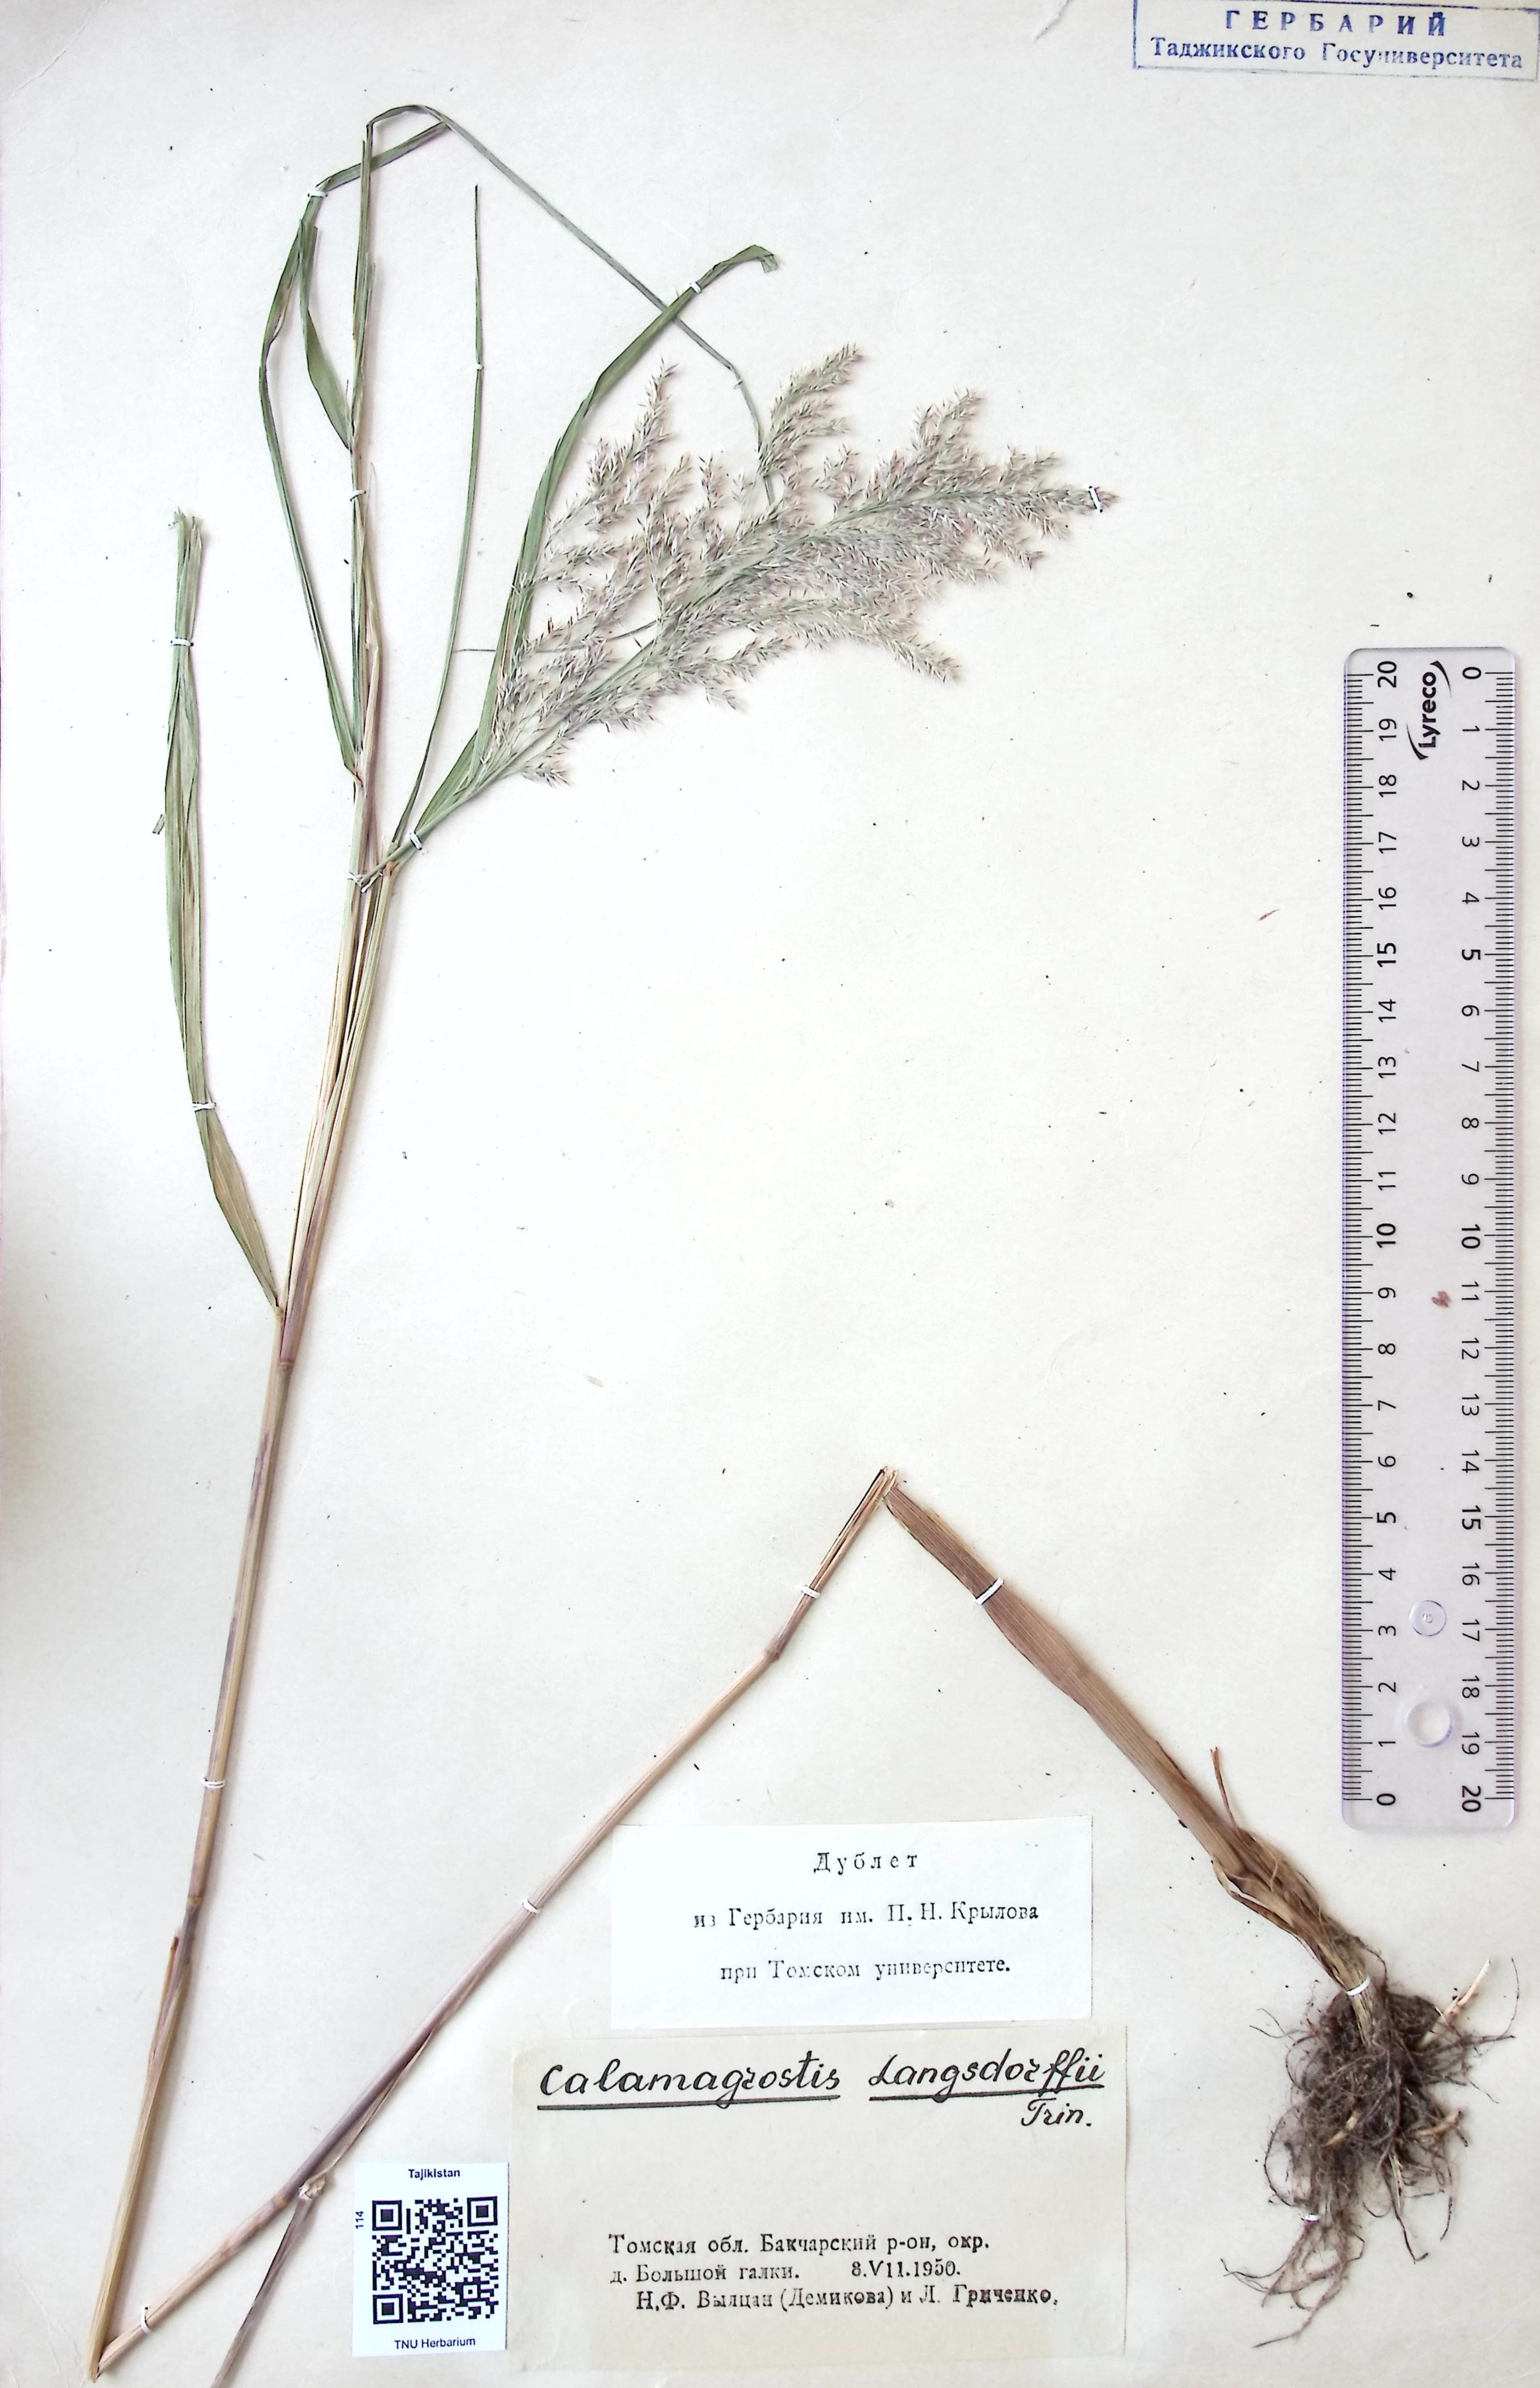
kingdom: Plantae
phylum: Tracheophyta
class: Liliopsida
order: Poales
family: Poaceae
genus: Calamagrostis
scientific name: Calamagrostis
